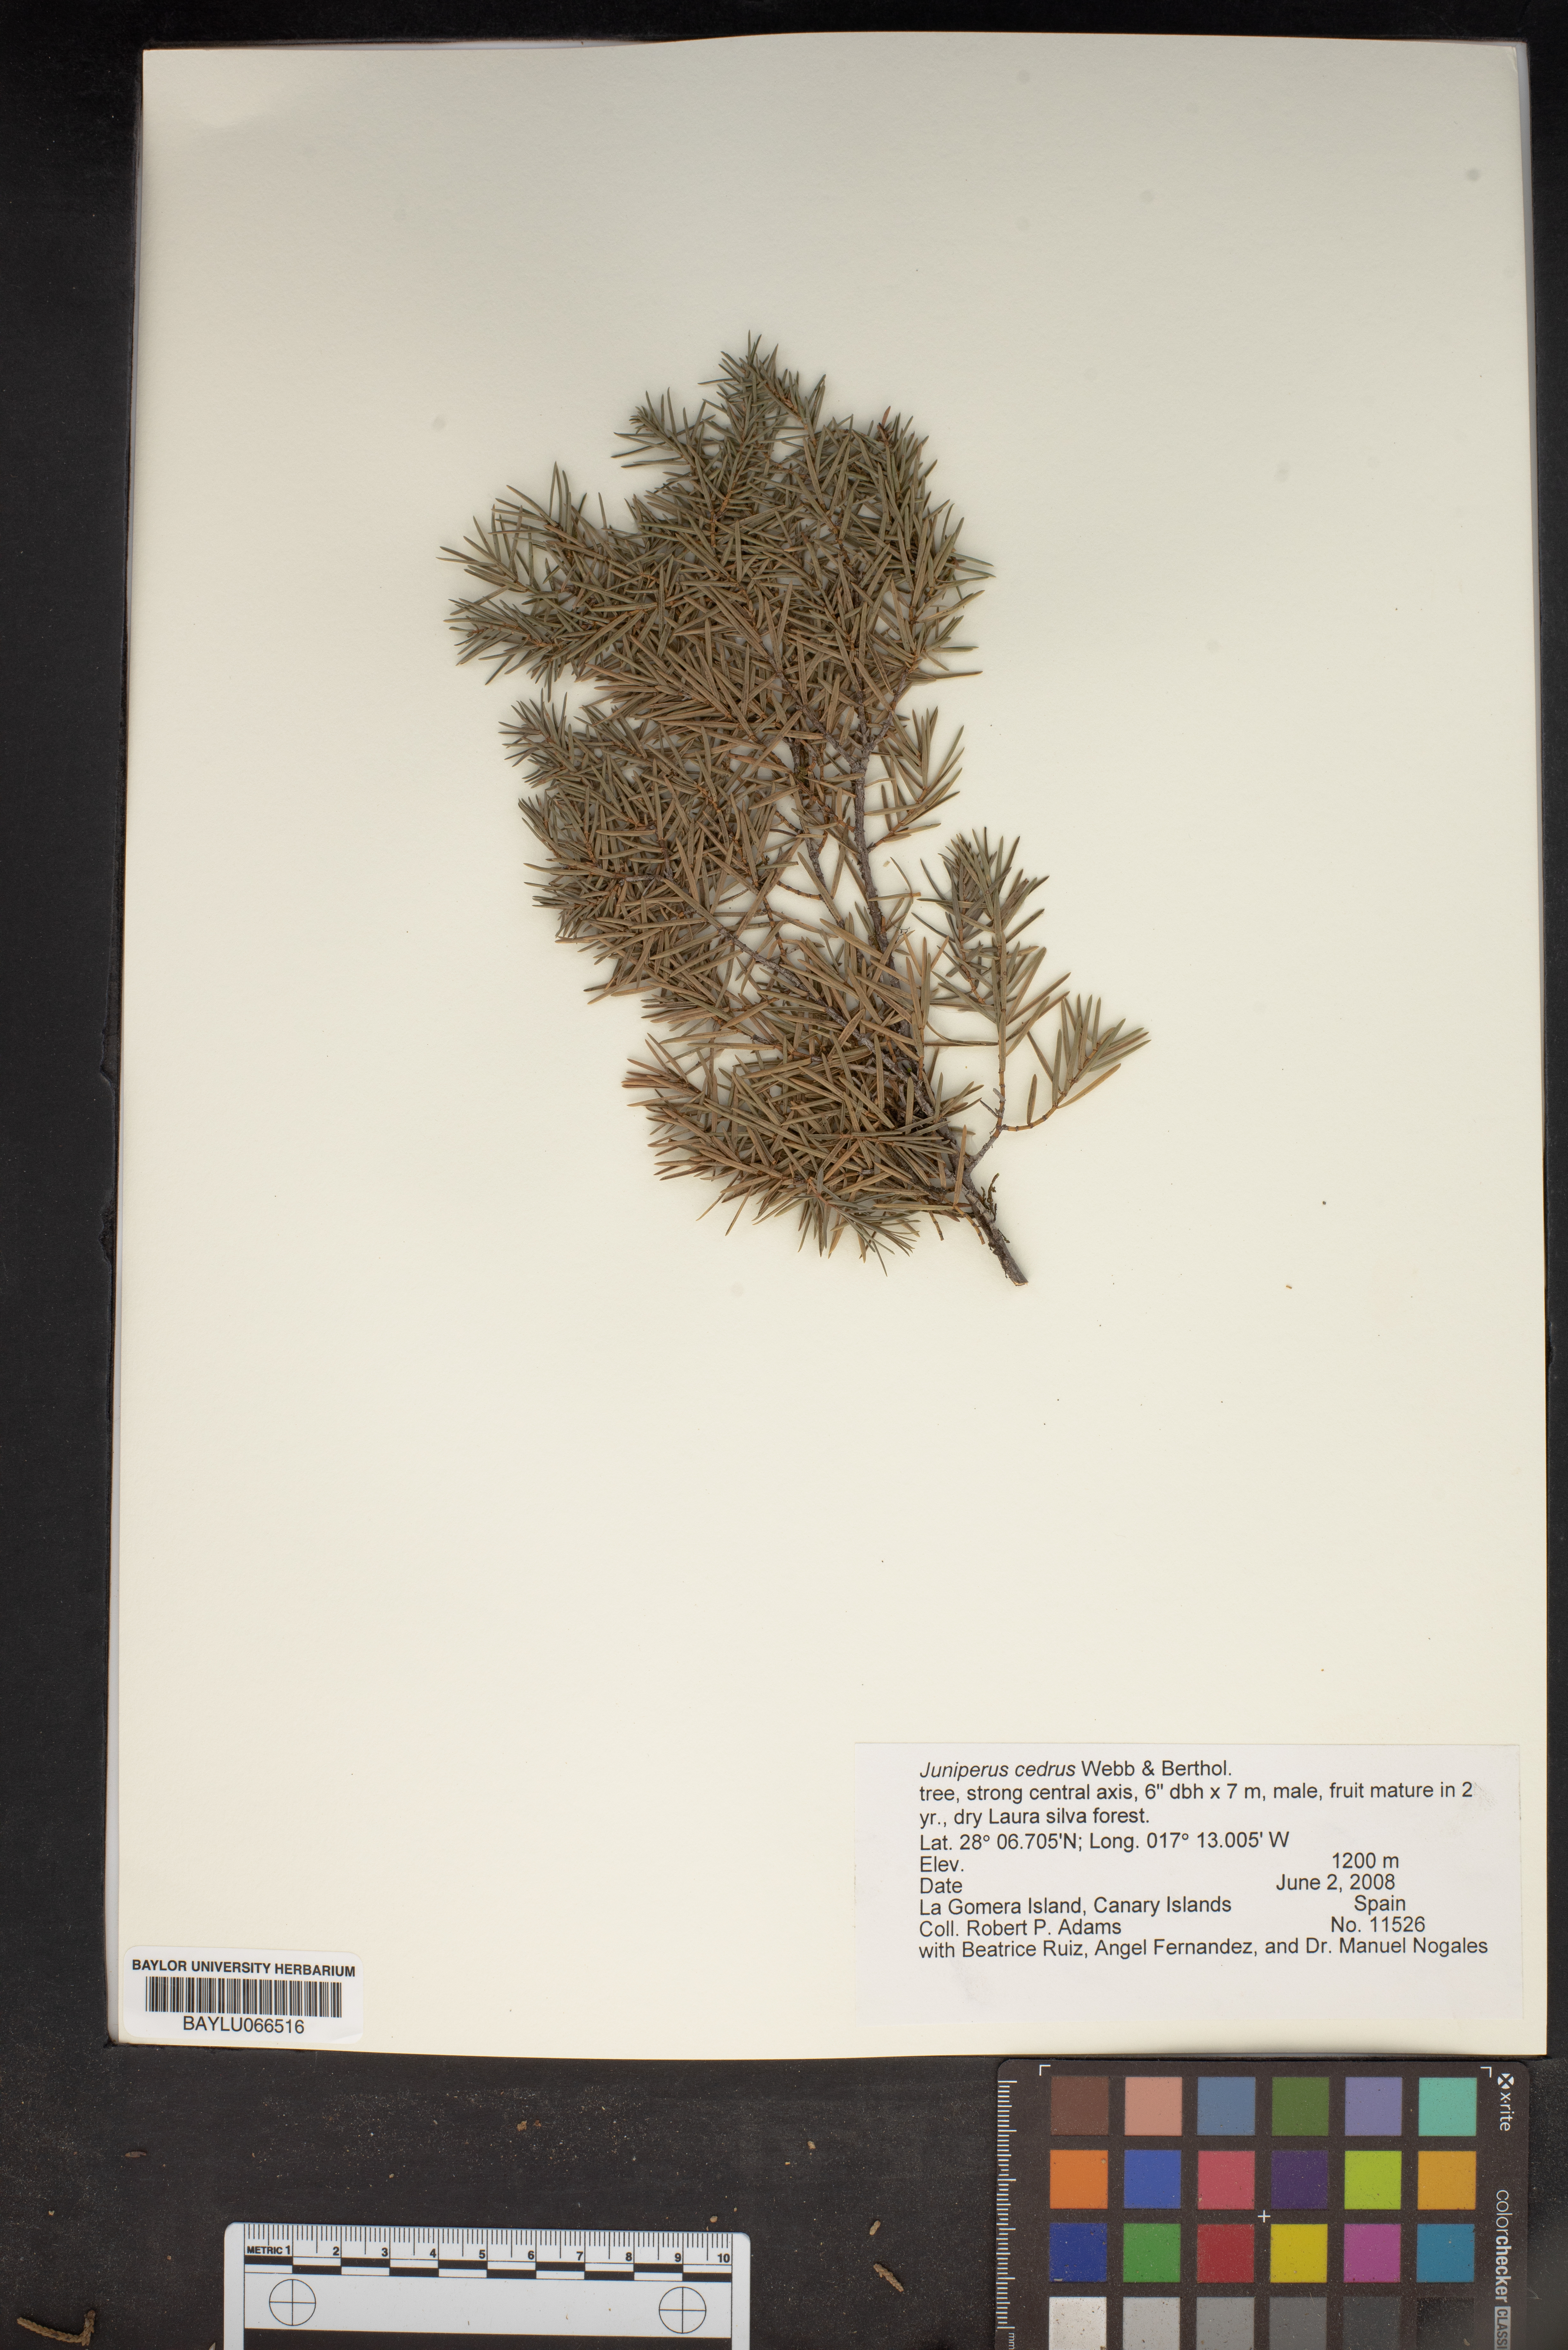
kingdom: Plantae
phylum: Tracheophyta
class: Pinopsida
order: Pinales
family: Cupressaceae
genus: Juniperus
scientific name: Juniperus cedrus
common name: Canary islands juniper
